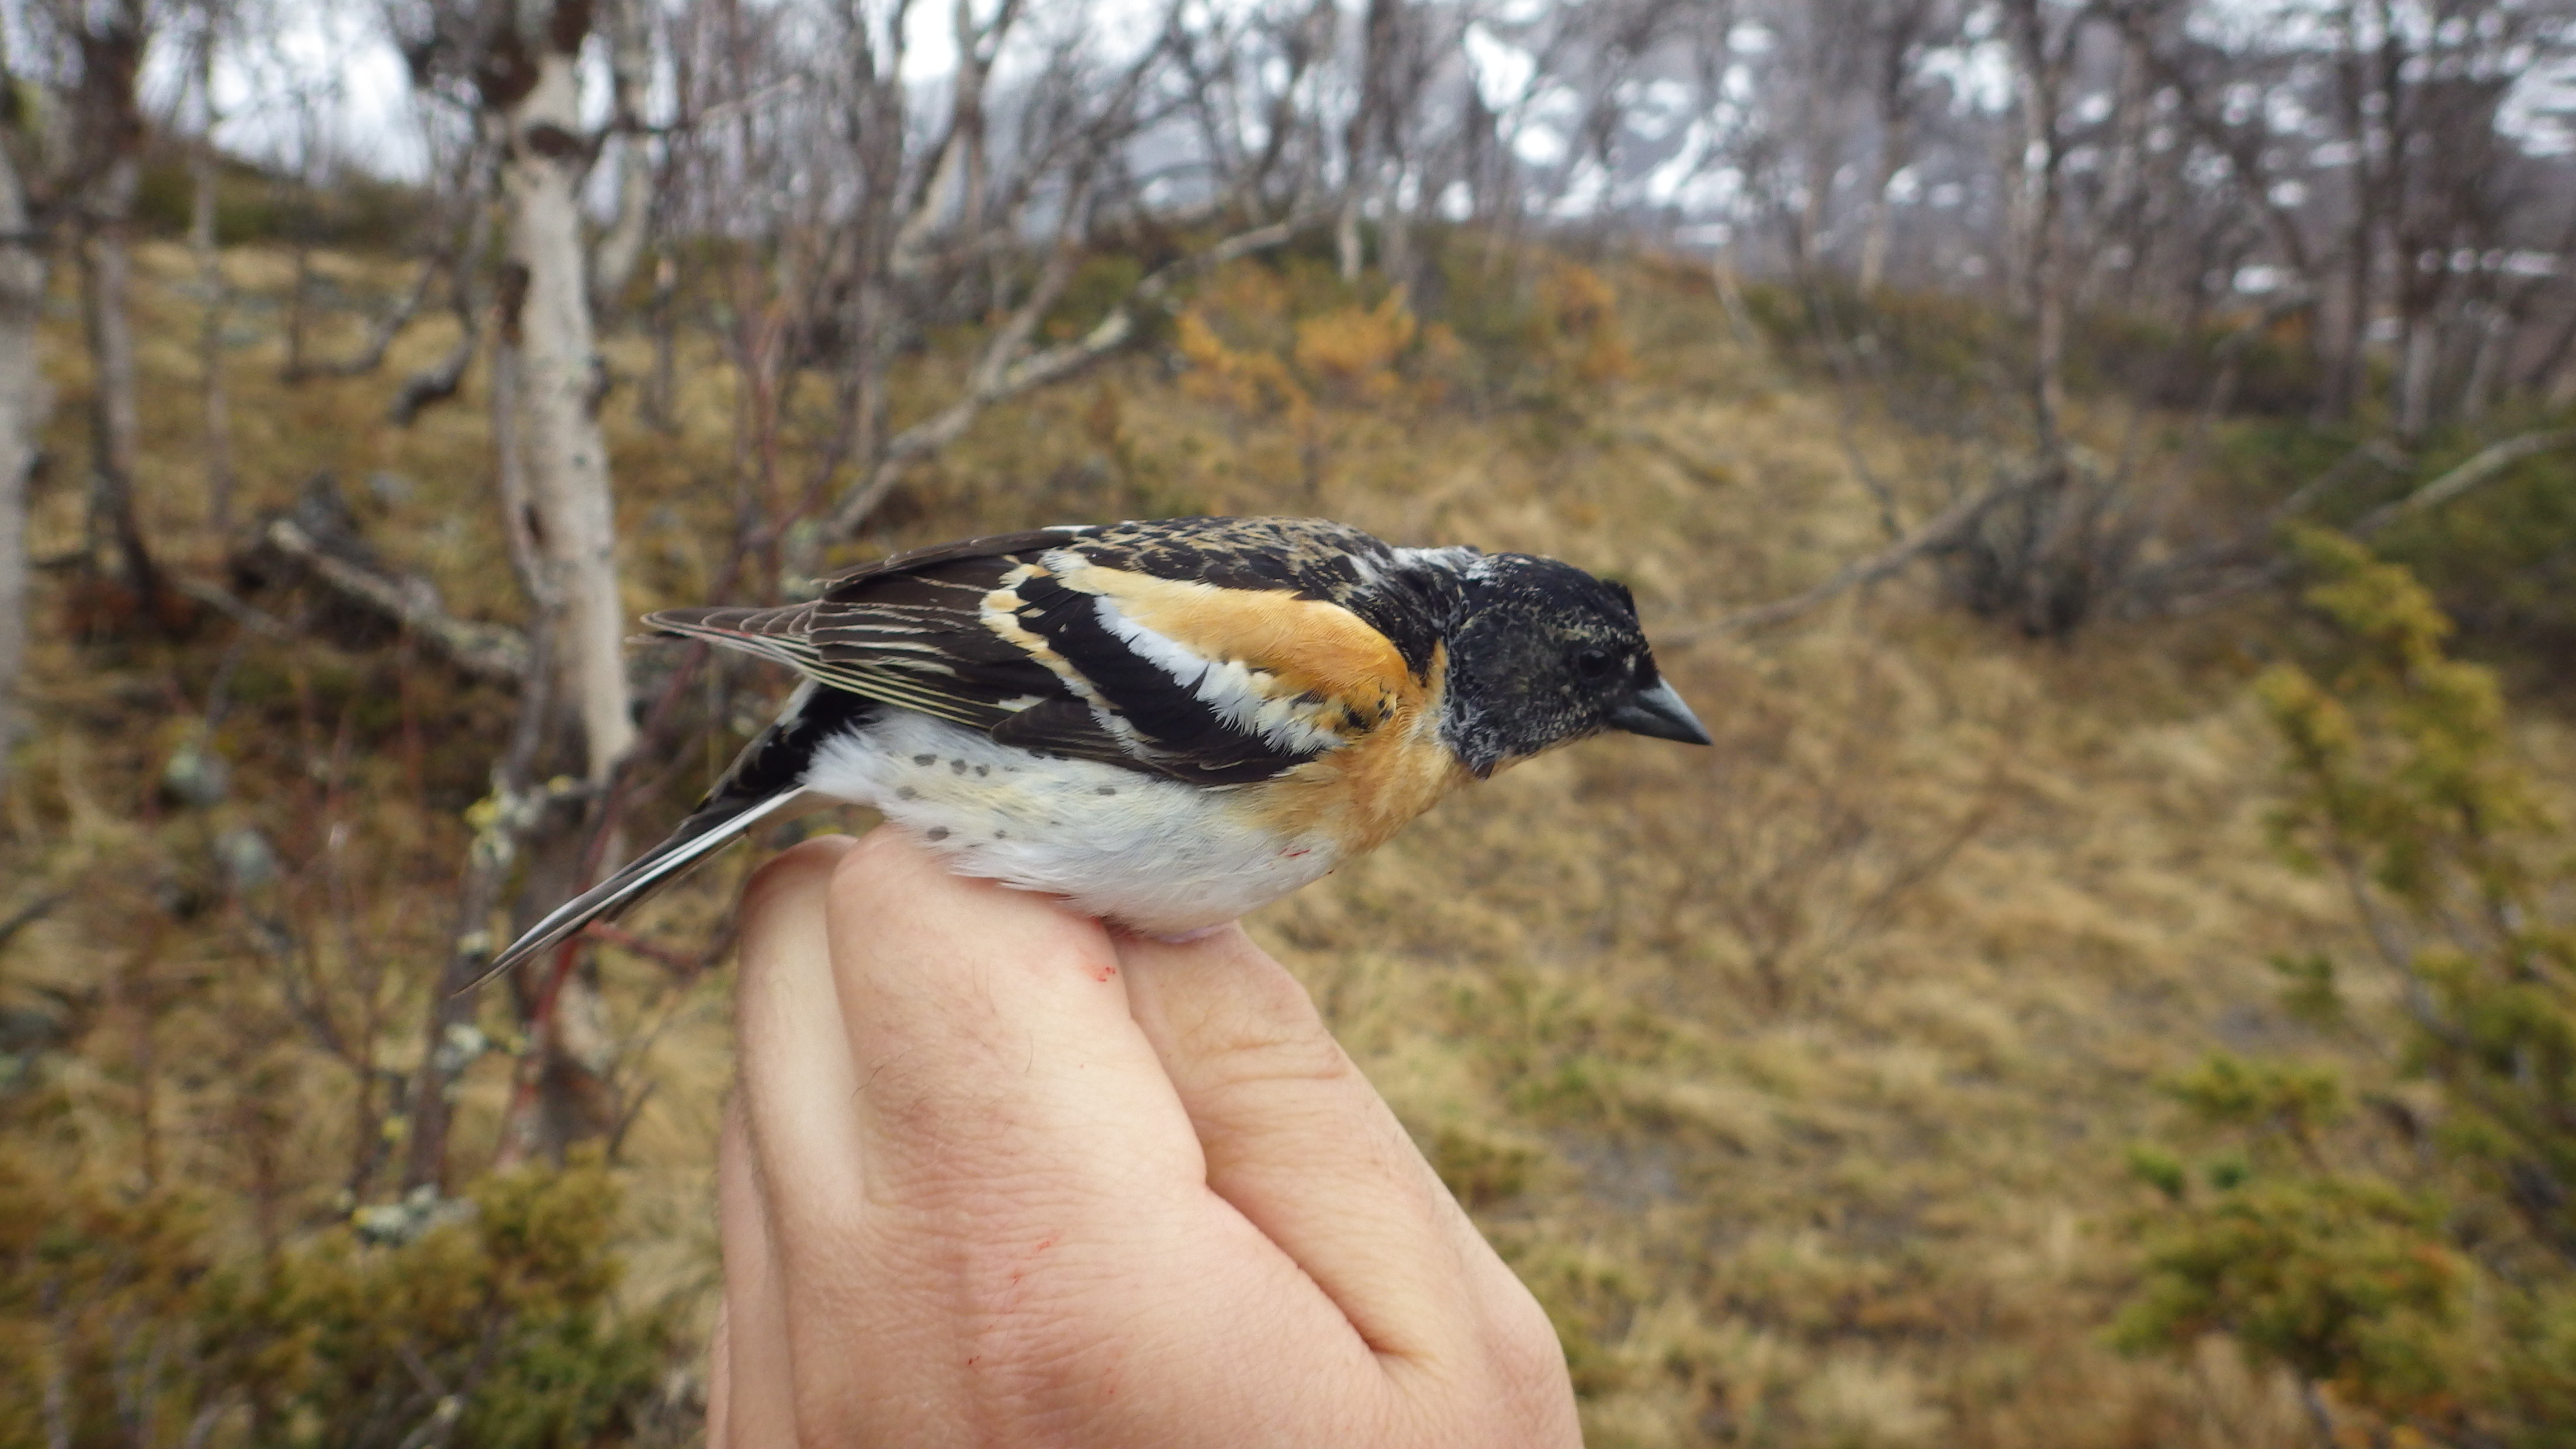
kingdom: Animalia
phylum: Chordata
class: Aves
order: Passeriformes
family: Fringillidae
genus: Fringilla
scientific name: Fringilla montifringilla
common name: Brambling
